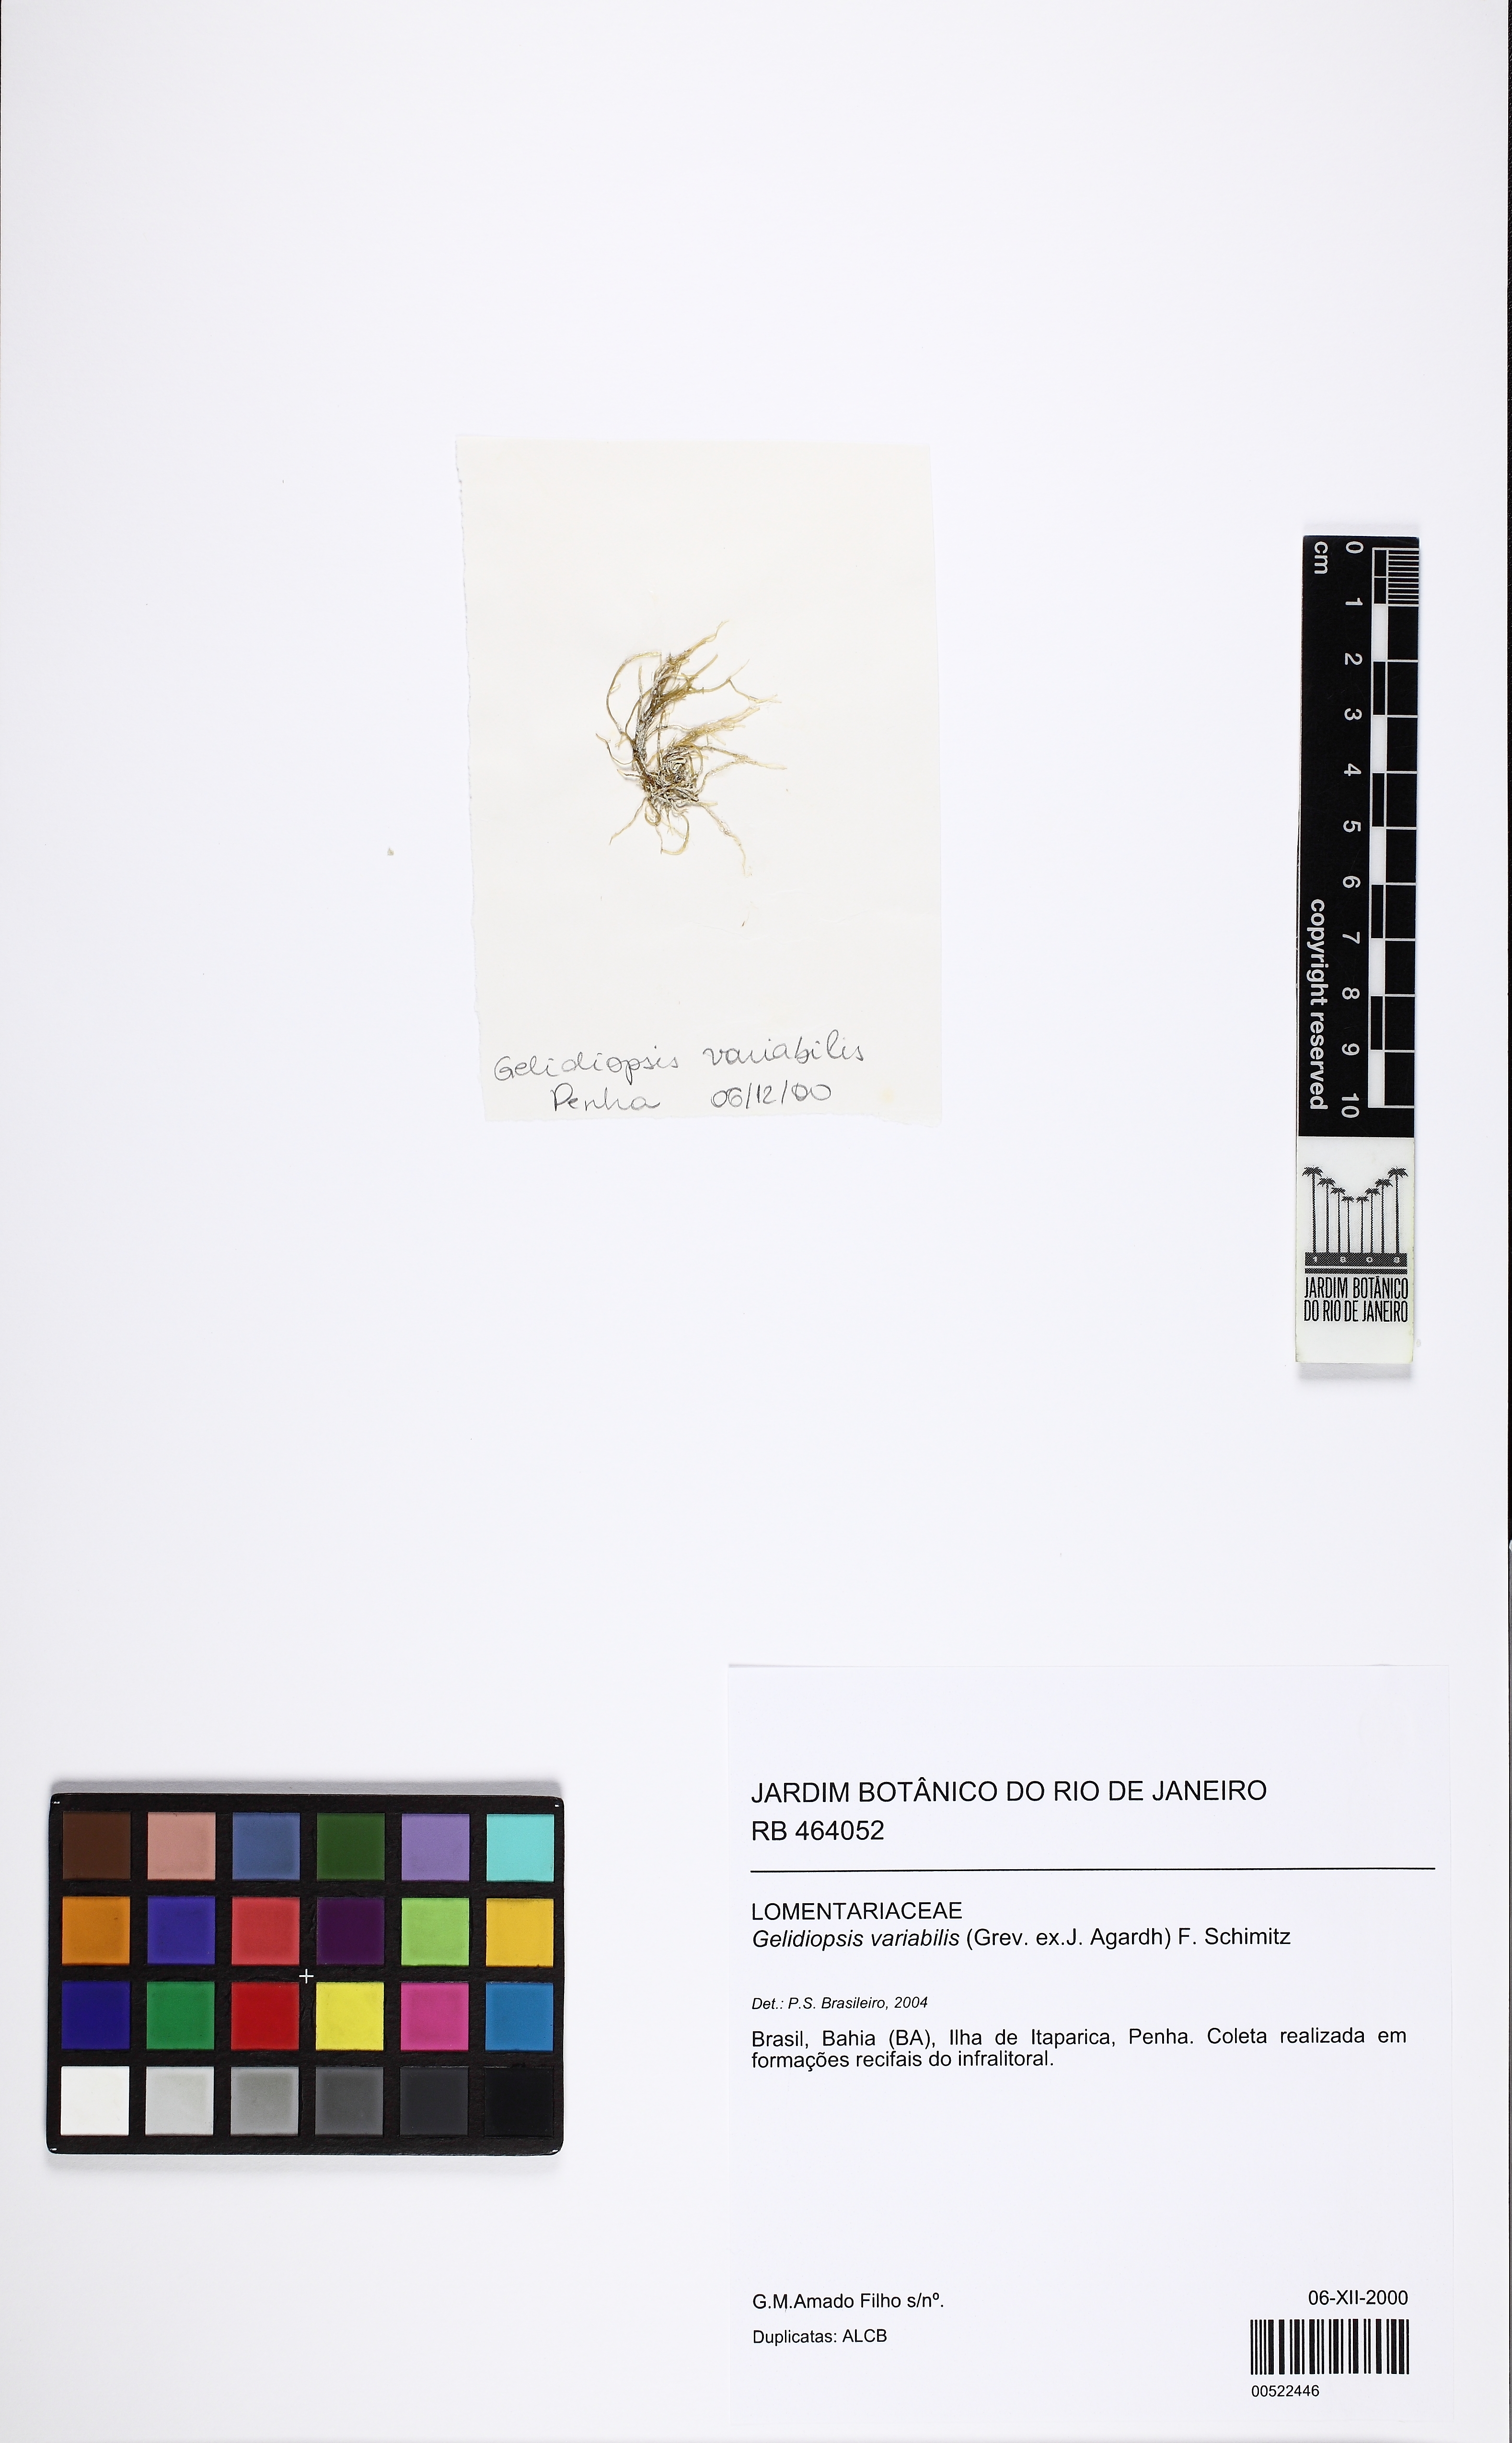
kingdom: Plantae
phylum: Rhodophyta
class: Florideophyceae
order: Rhodymeniales
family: Lomentariaceae
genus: Ceratodictyon
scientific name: Ceratodictyon variabile
